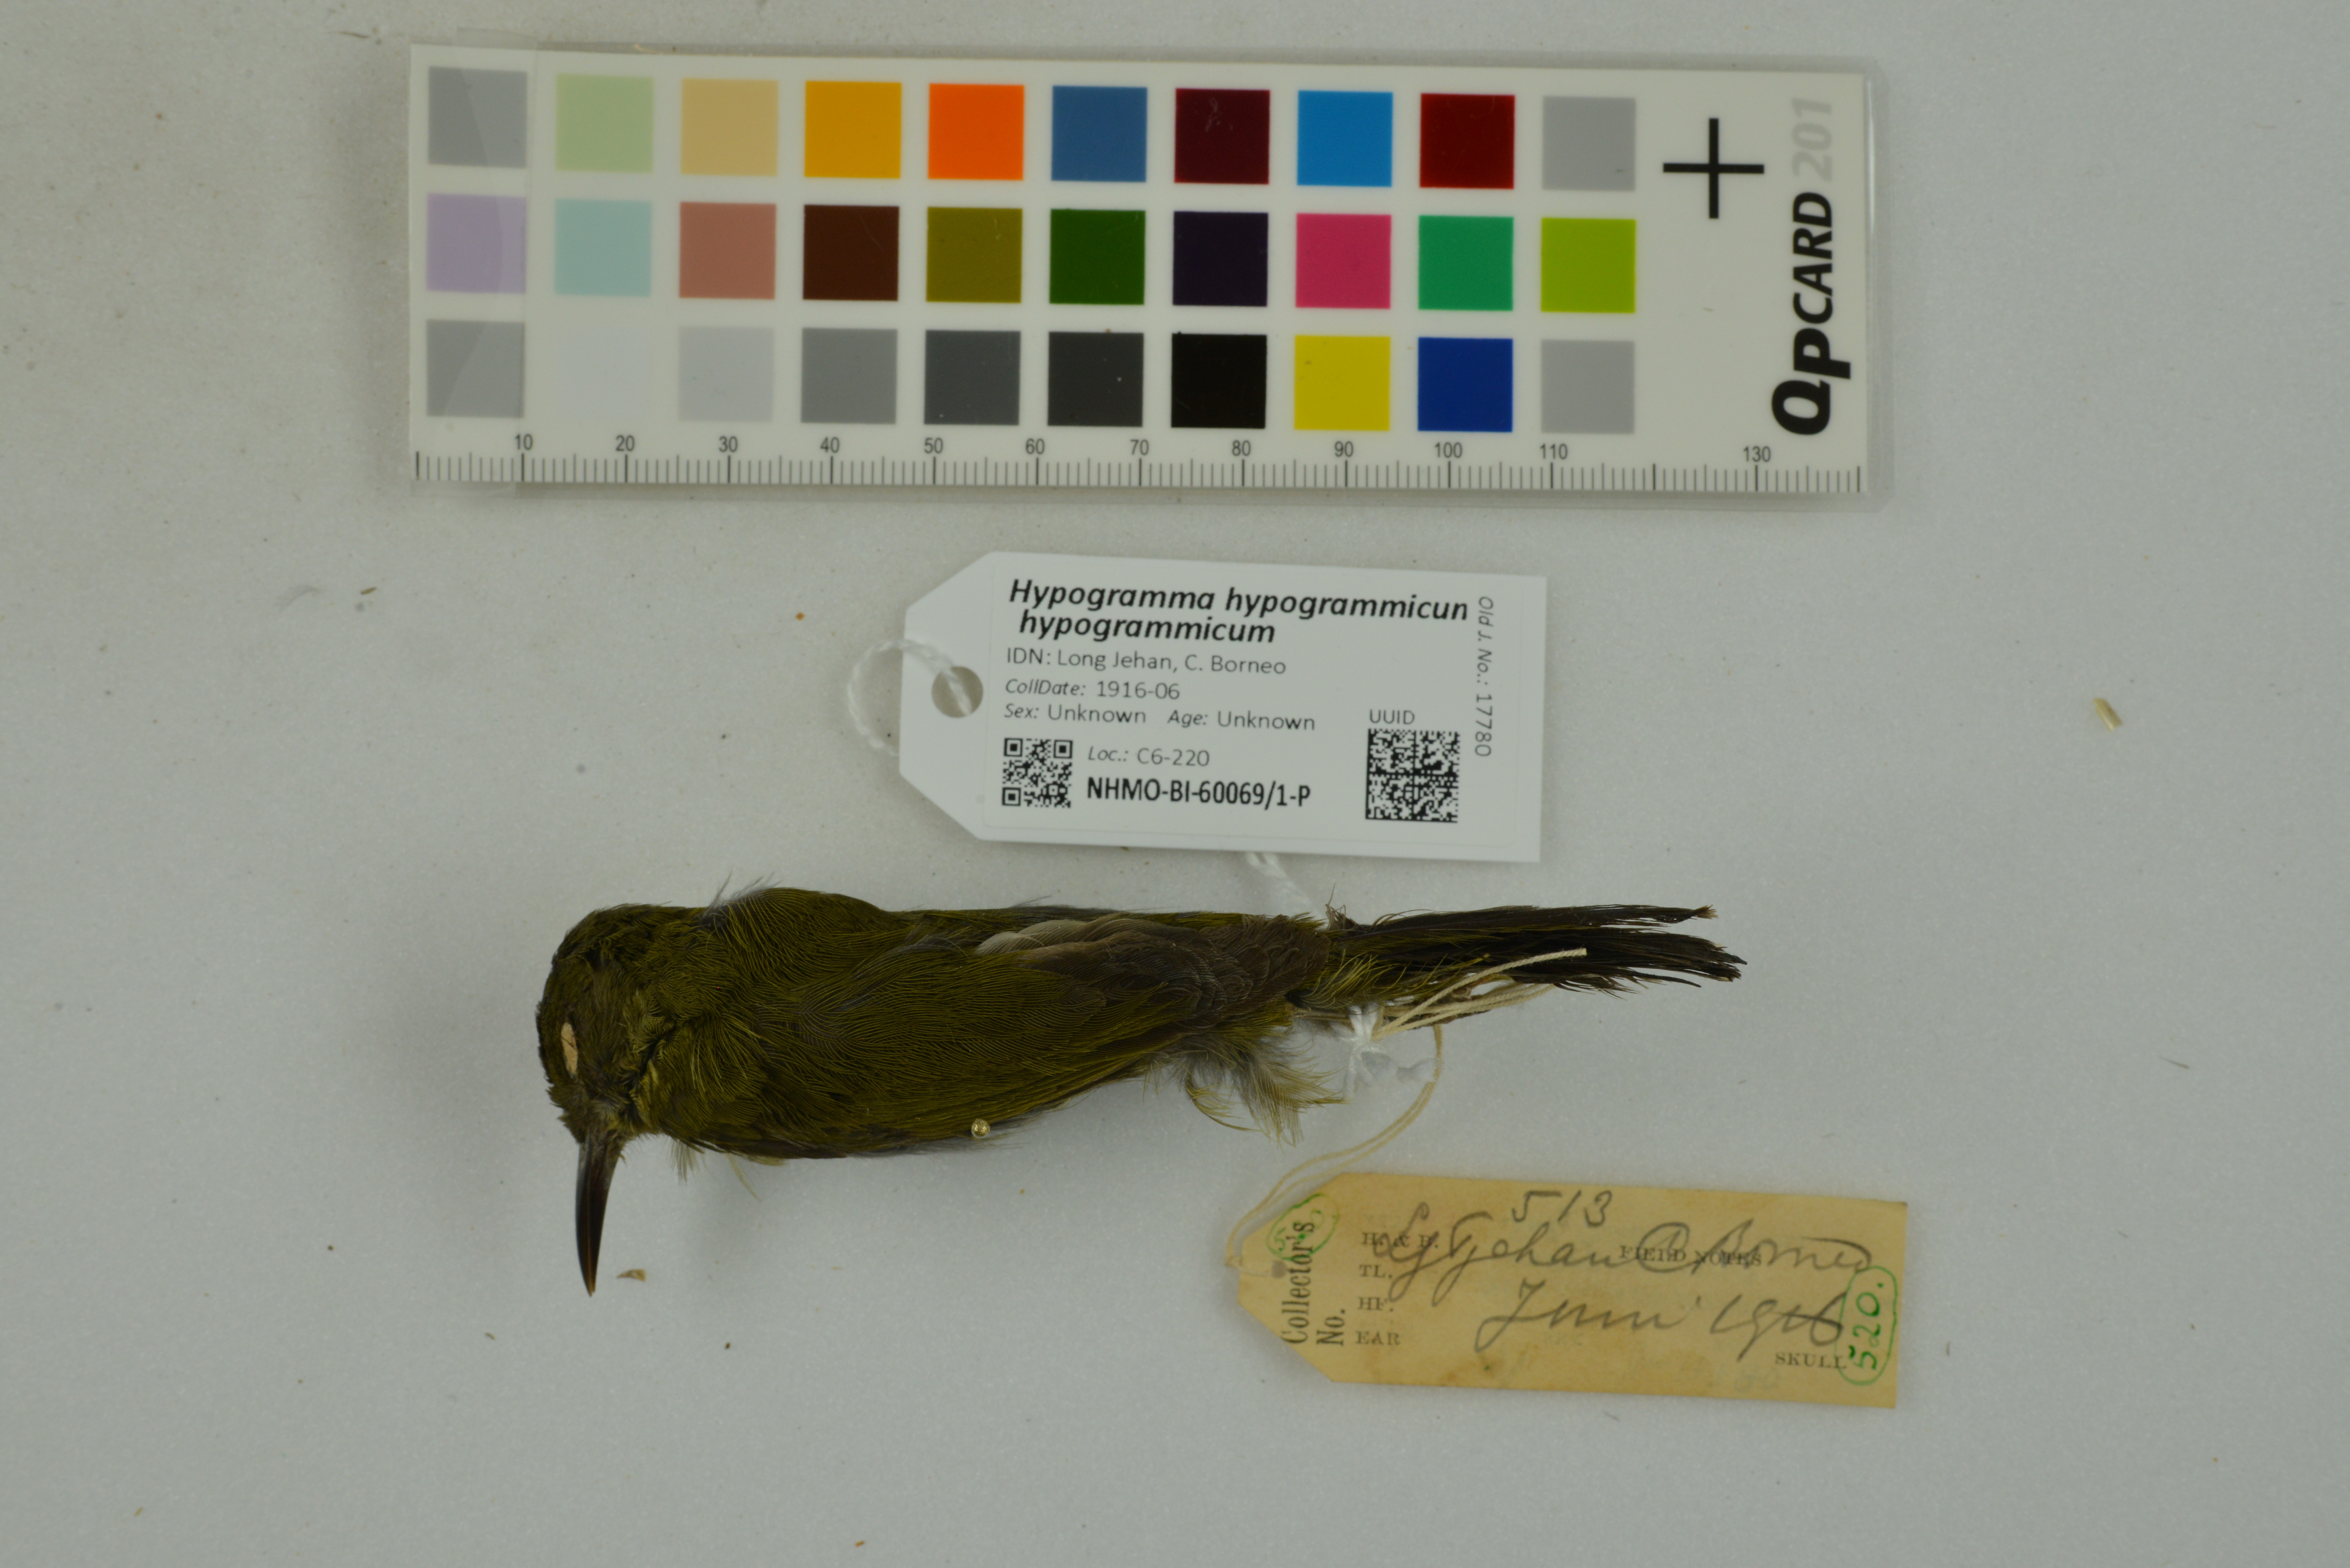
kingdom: Animalia
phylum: Chordata
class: Aves
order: Passeriformes
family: Nectariniidae
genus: Hypogramma
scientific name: Hypogramma hypogrammicum
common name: Purple-naped sunbird
